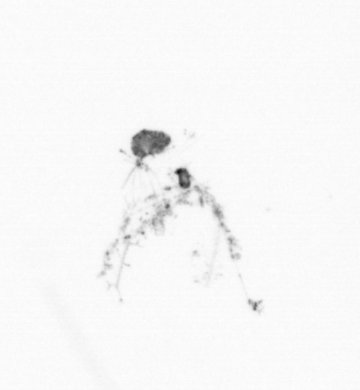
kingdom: Chromista
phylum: Ochrophyta
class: Bacillariophyceae
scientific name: Bacillariophyceae
